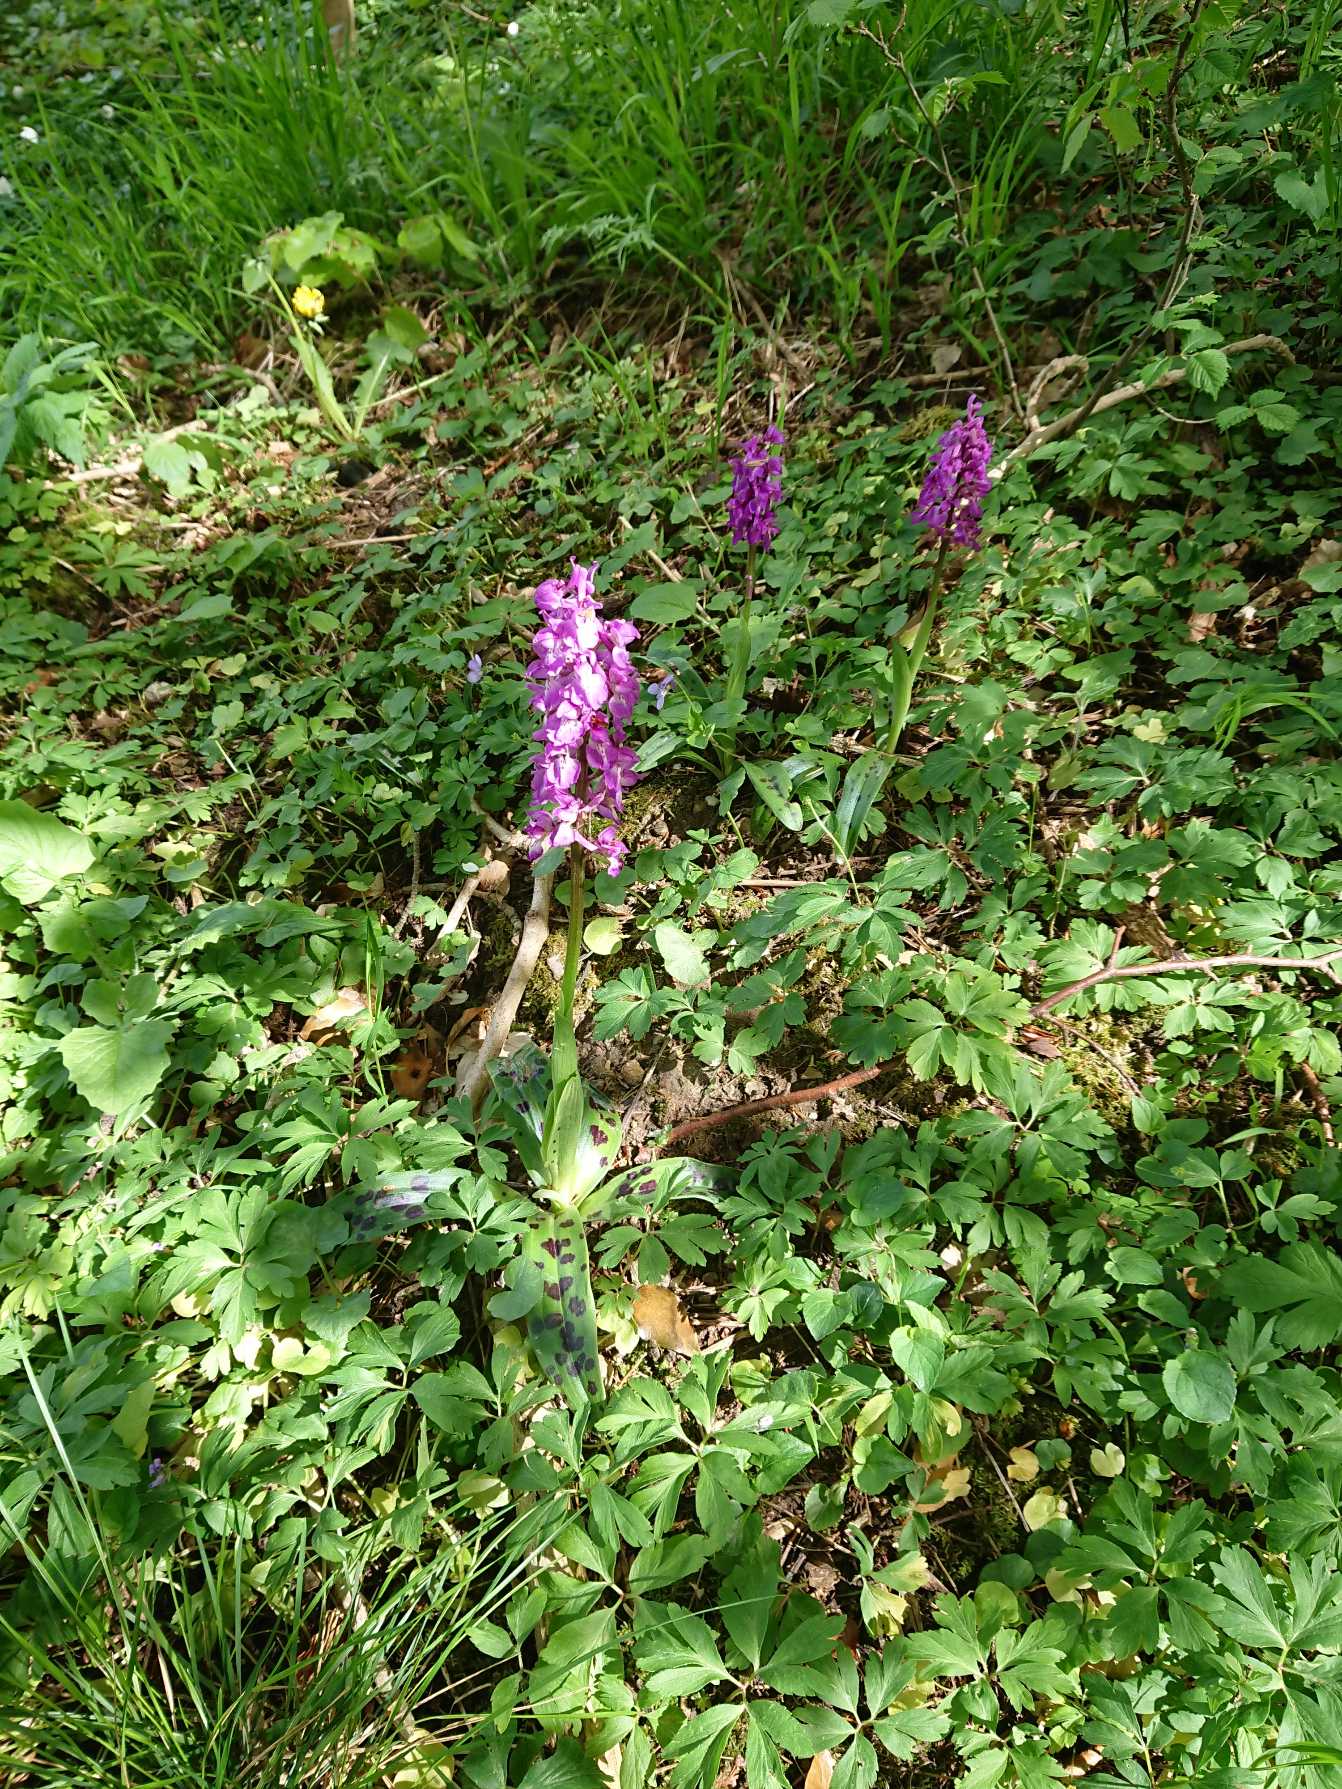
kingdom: Plantae
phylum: Tracheophyta
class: Liliopsida
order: Asparagales
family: Orchidaceae
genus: Orchis
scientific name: Orchis mascula
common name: Tyndakset gøgeurt
